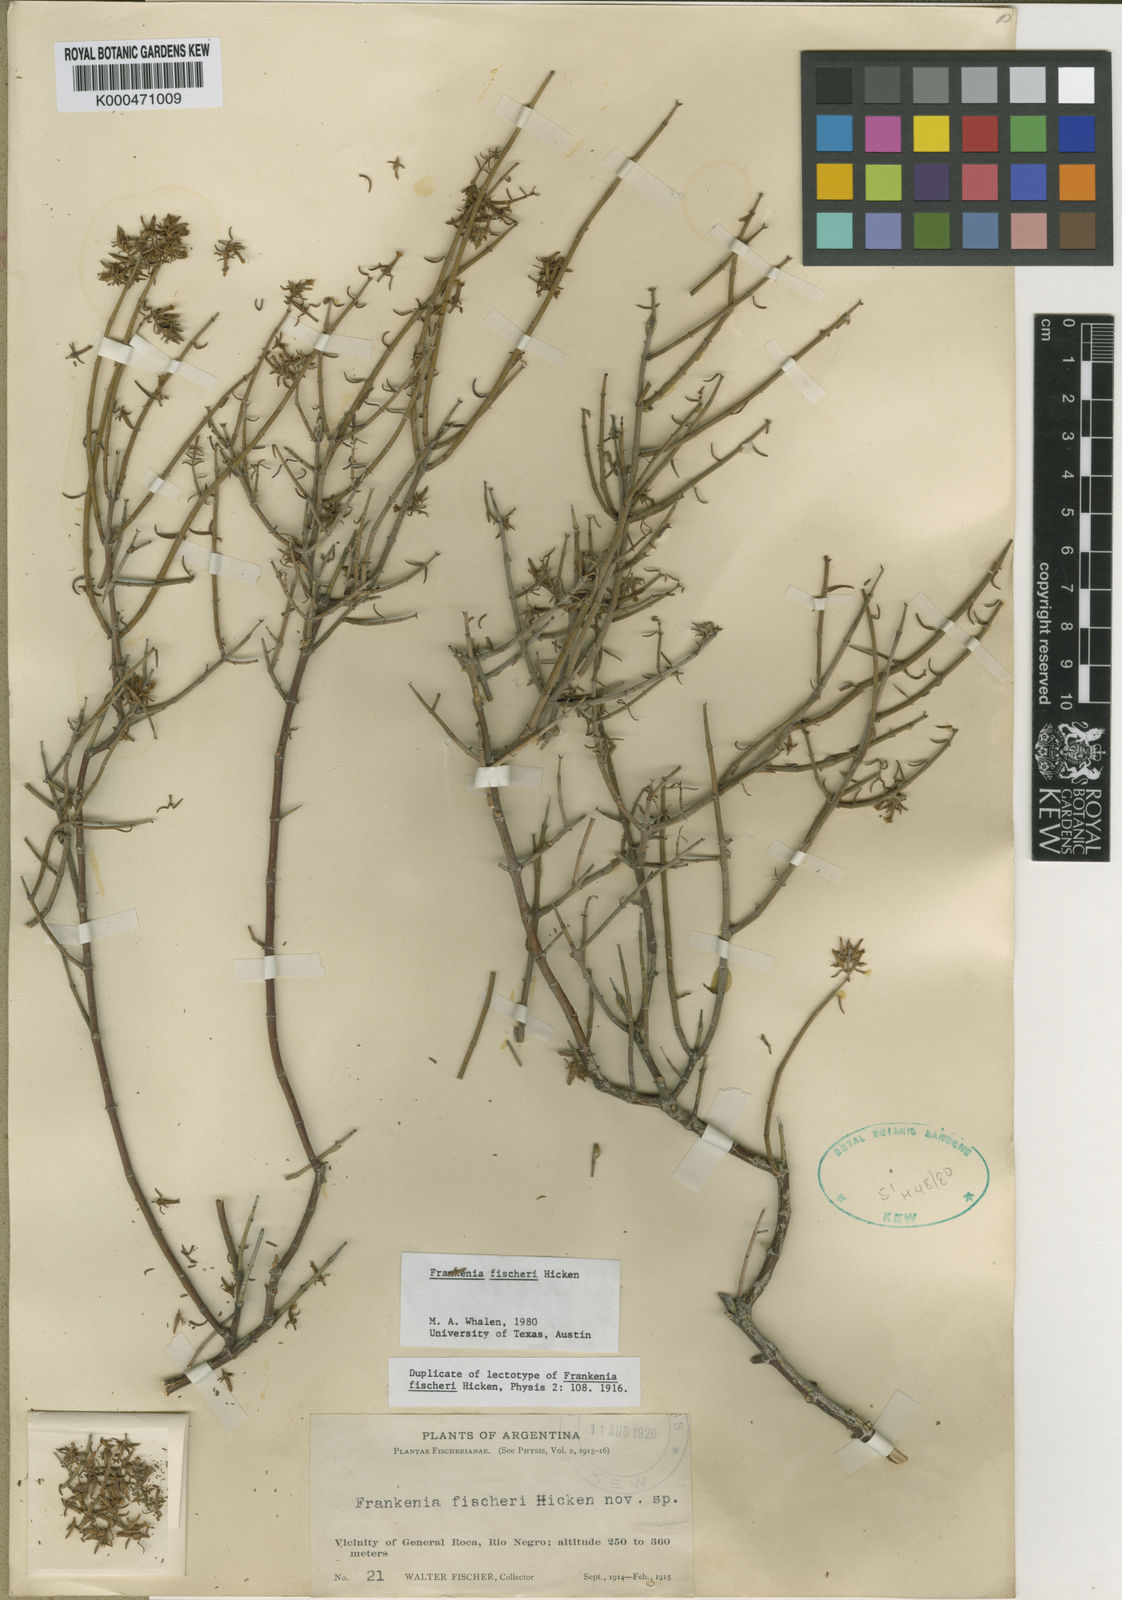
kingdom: Plantae
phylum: Tracheophyta
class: Magnoliopsida
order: Caryophyllales
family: Frankeniaceae
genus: Frankenia
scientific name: Frankenia fischeri
